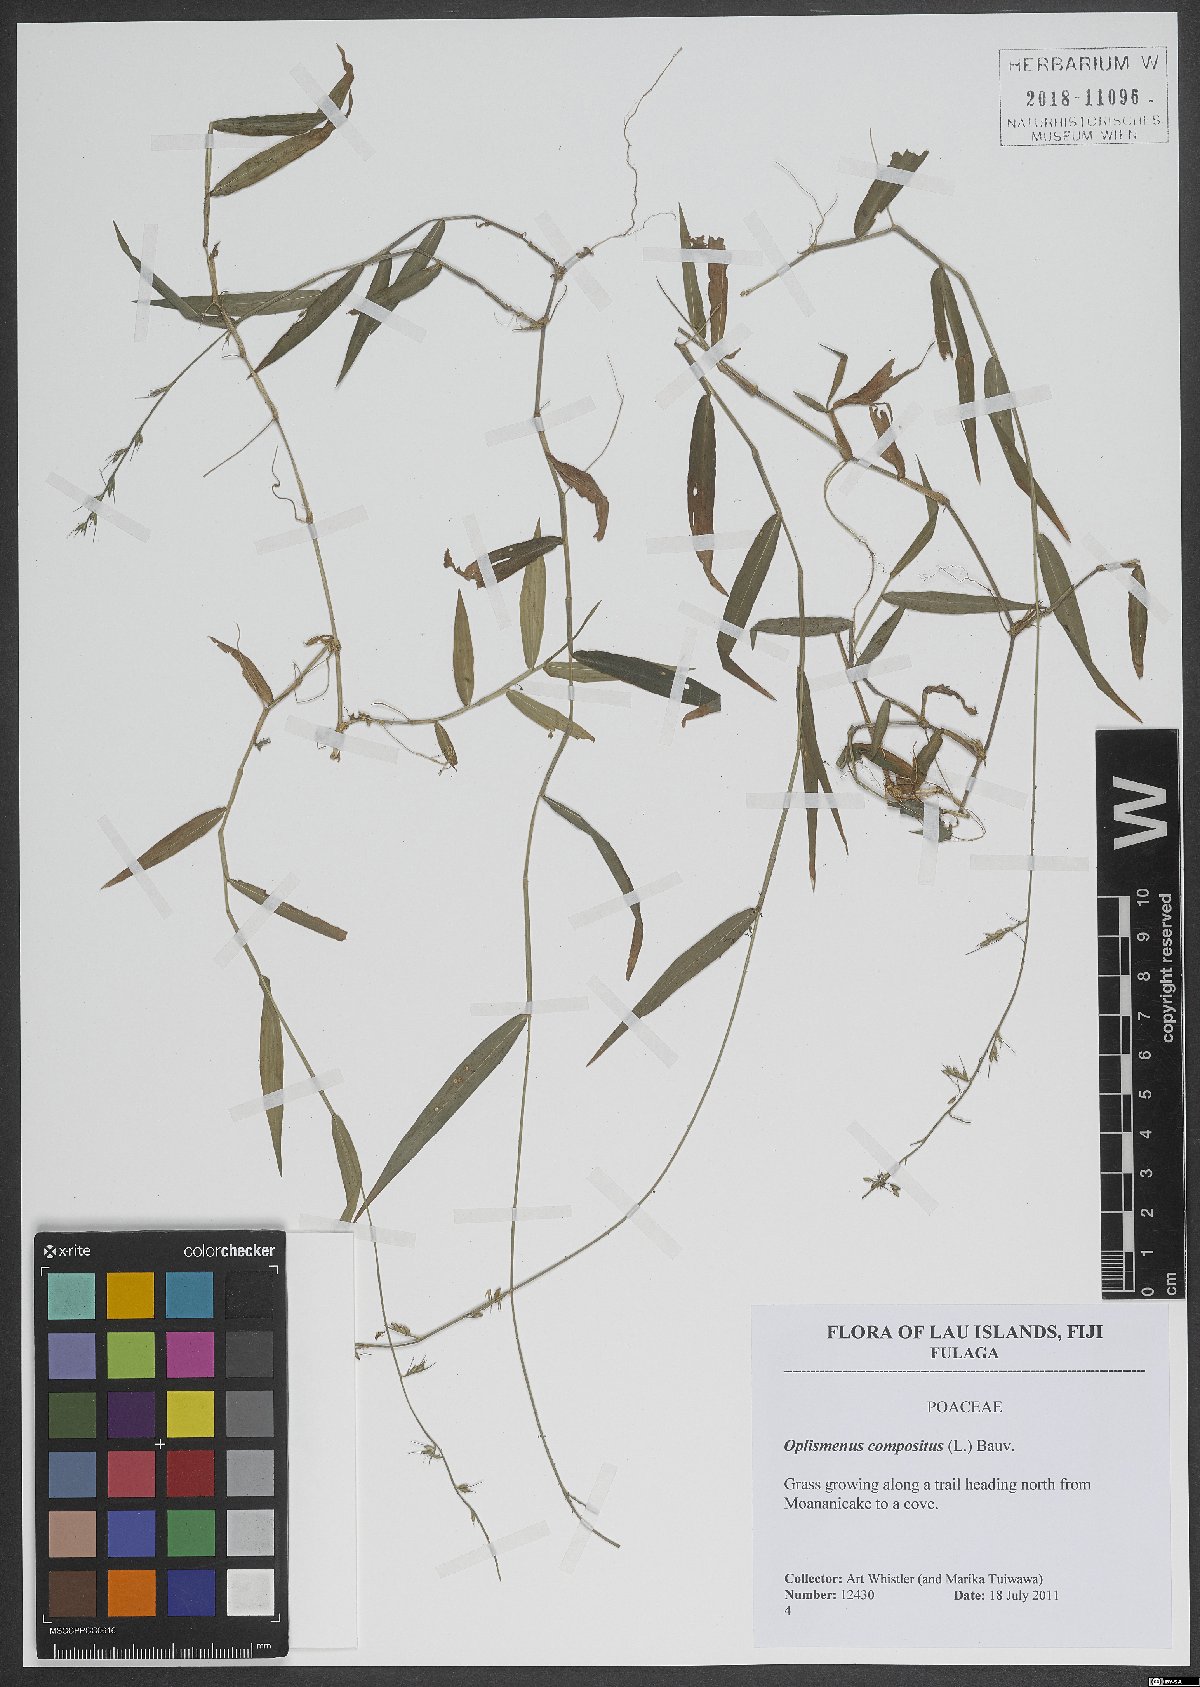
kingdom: Plantae
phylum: Tracheophyta
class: Liliopsida
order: Poales
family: Poaceae
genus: Oplismenus
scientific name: Oplismenus compositus
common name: Running mountain grass
